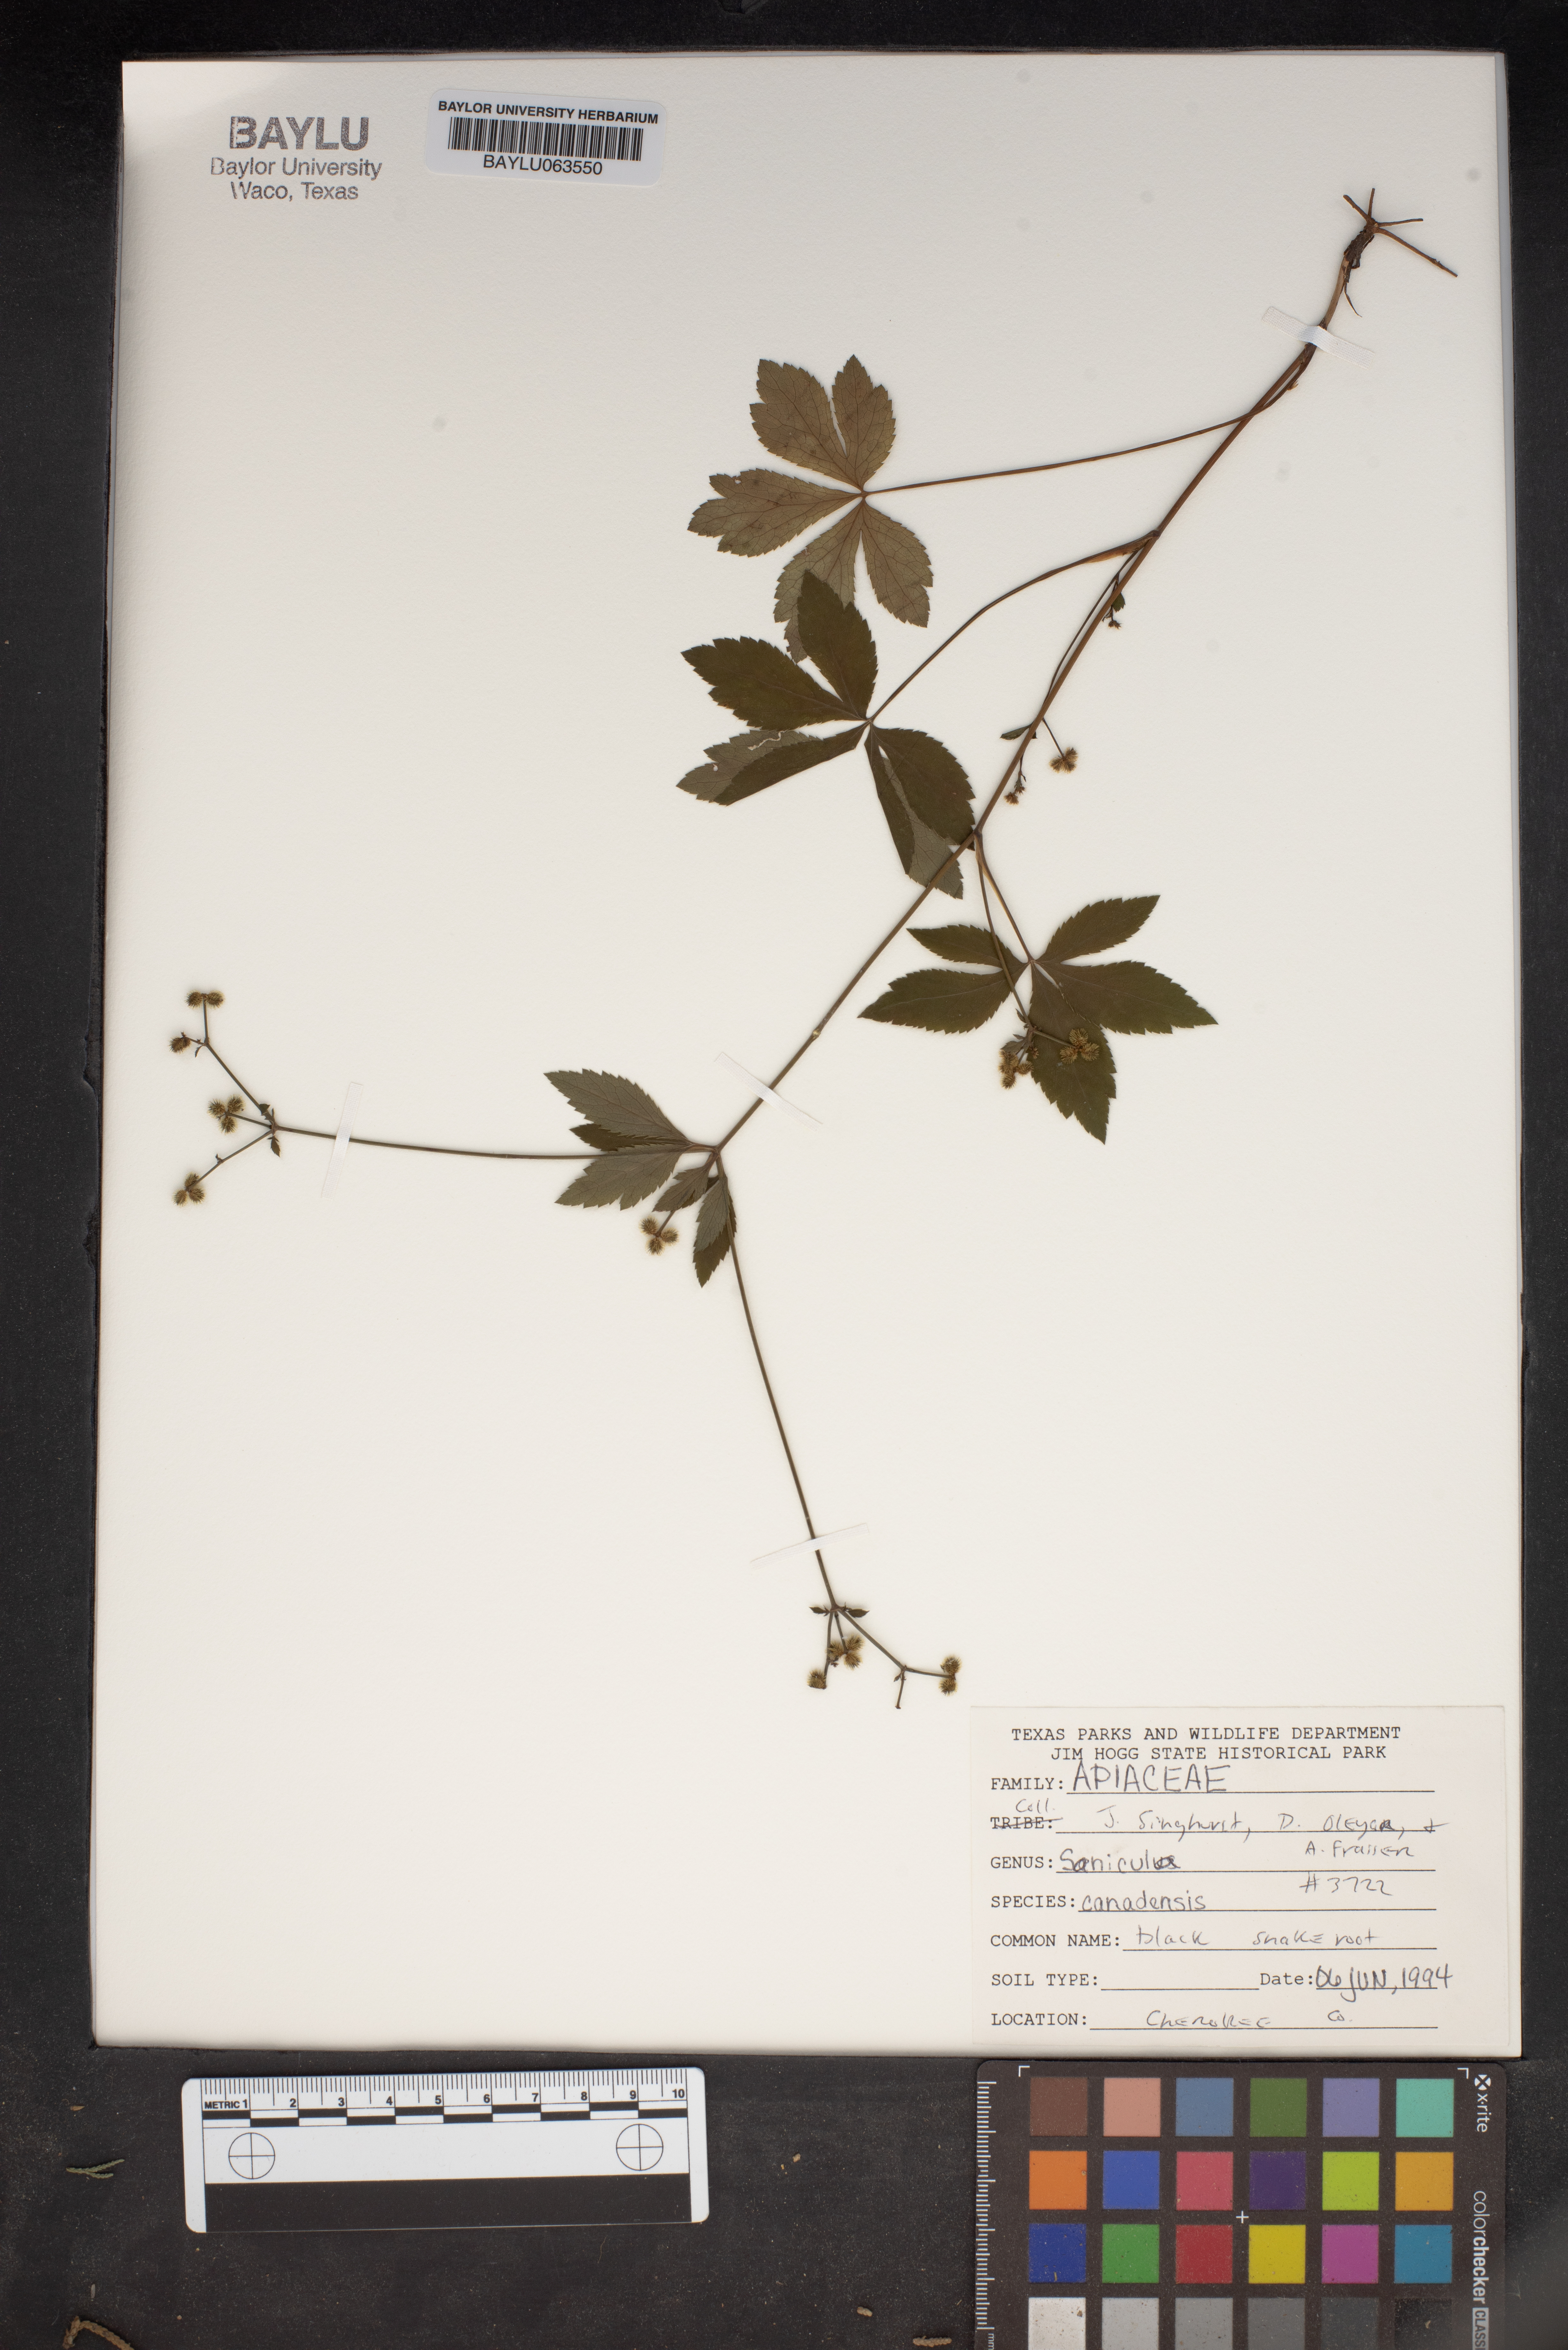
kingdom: Plantae
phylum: Tracheophyta
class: Magnoliopsida
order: Apiales
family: Apiaceae
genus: Sanicula
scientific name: Sanicula canadensis
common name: Canada sanicle
